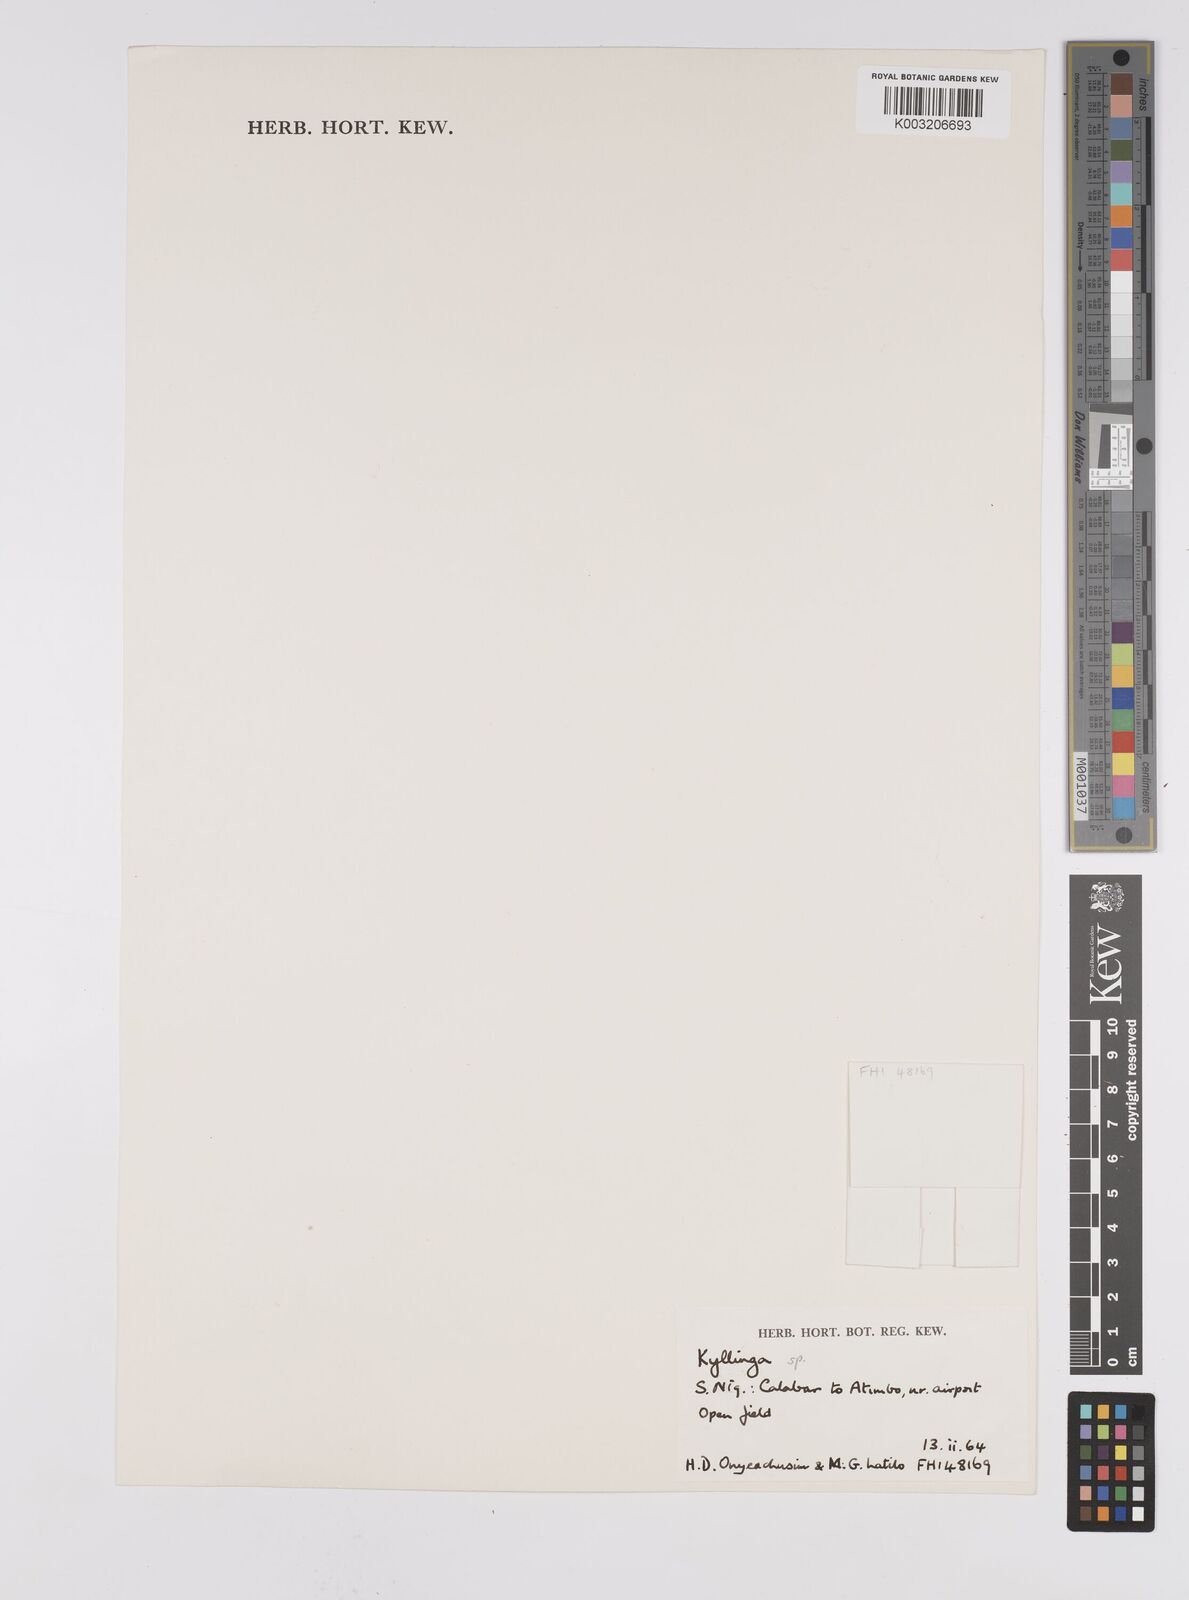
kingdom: Plantae
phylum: Tracheophyta
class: Liliopsida
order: Poales
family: Cyperaceae
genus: Cyperus
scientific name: Cyperus
